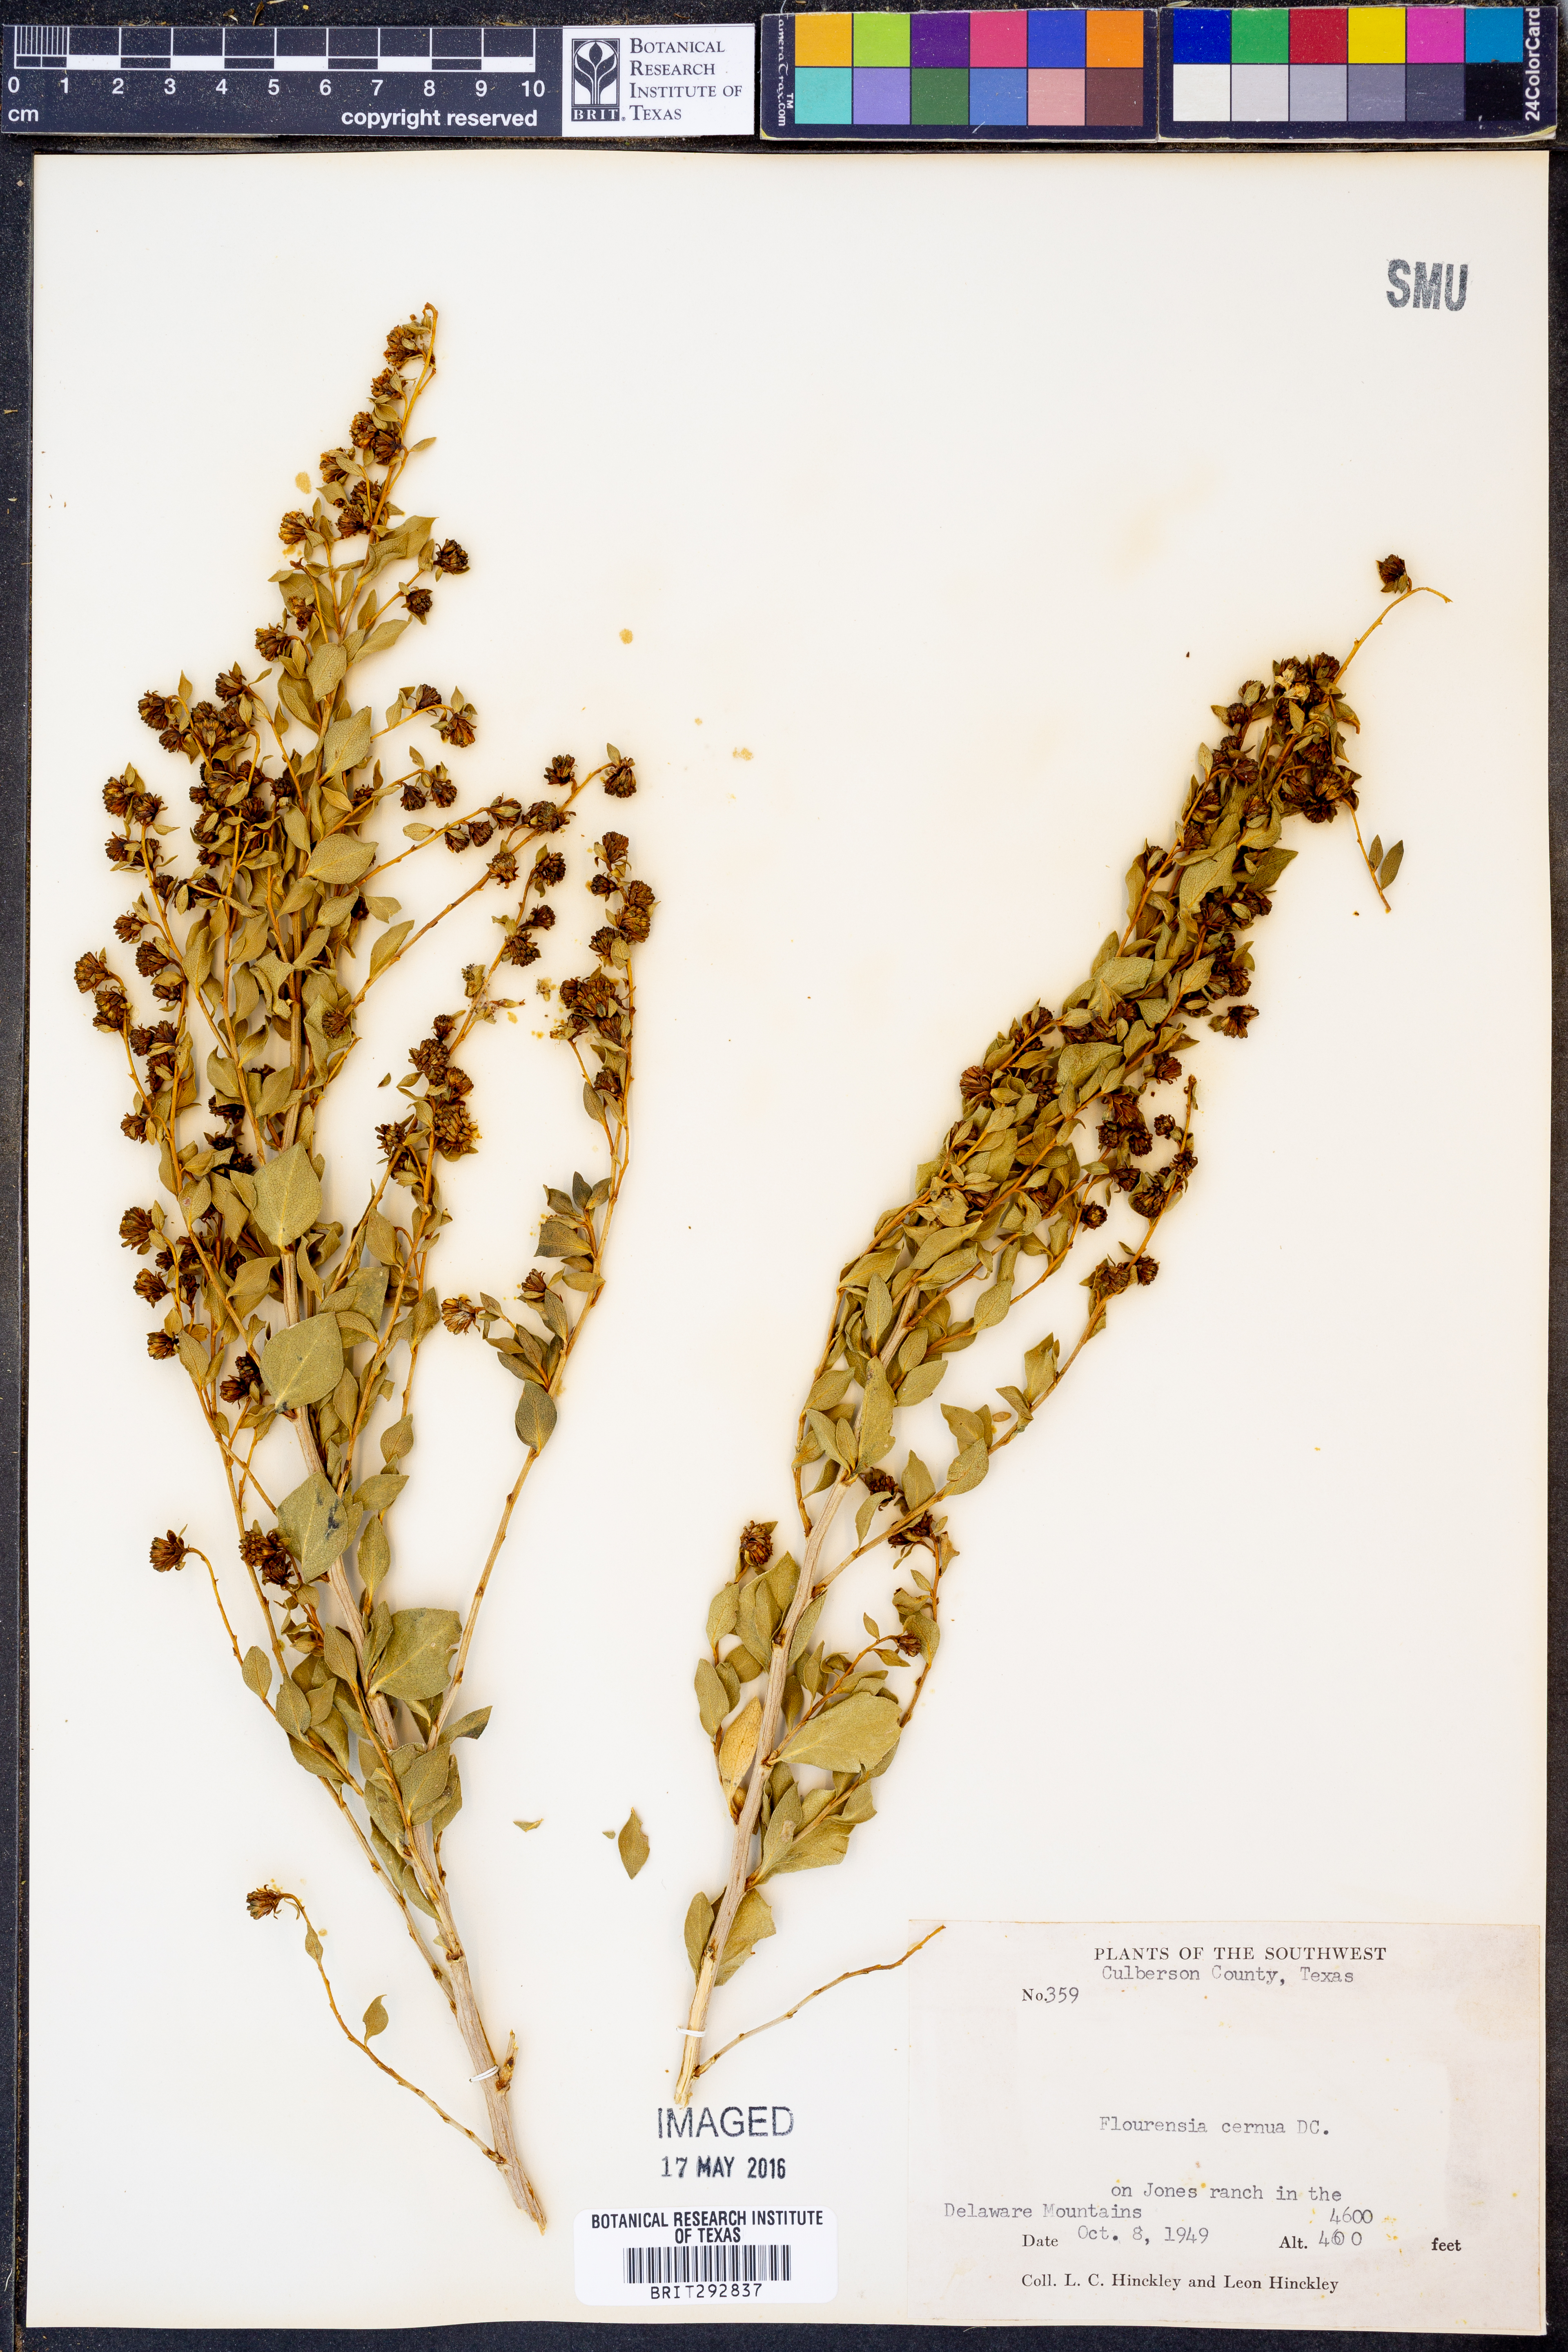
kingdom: Plantae
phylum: Tracheophyta
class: Magnoliopsida
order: Asterales
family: Asteraceae
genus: Flourensia
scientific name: Flourensia cernua
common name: Varnishbush
